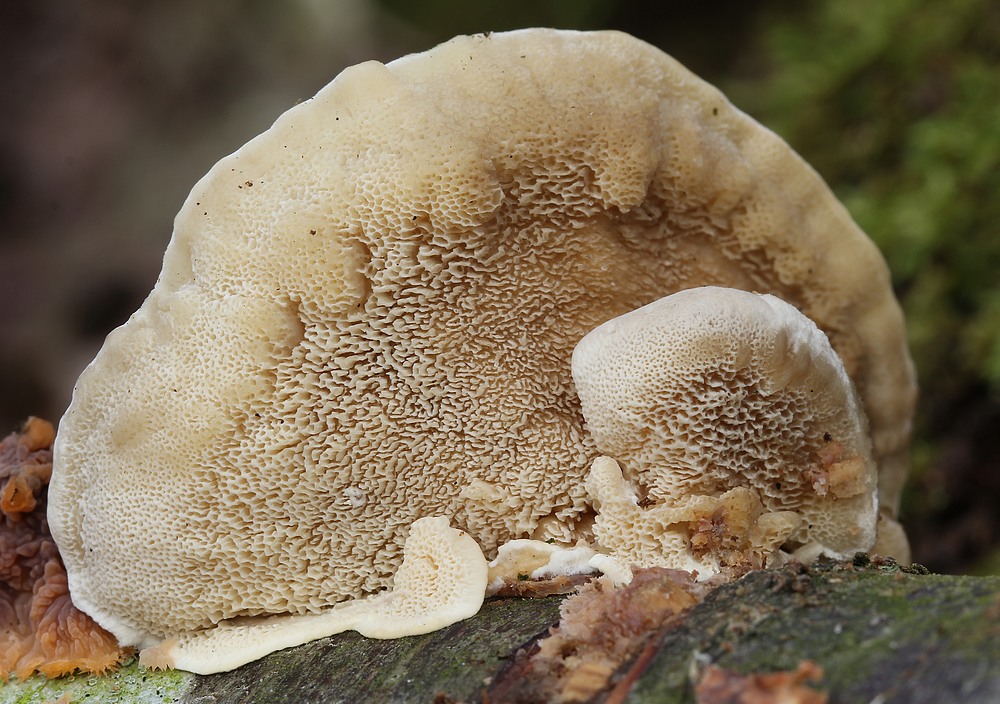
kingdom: Fungi
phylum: Basidiomycota
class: Agaricomycetes
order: Polyporales
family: Polyporaceae
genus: Trametes
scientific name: Trametes hirsuta
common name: håret læderporesvamp
